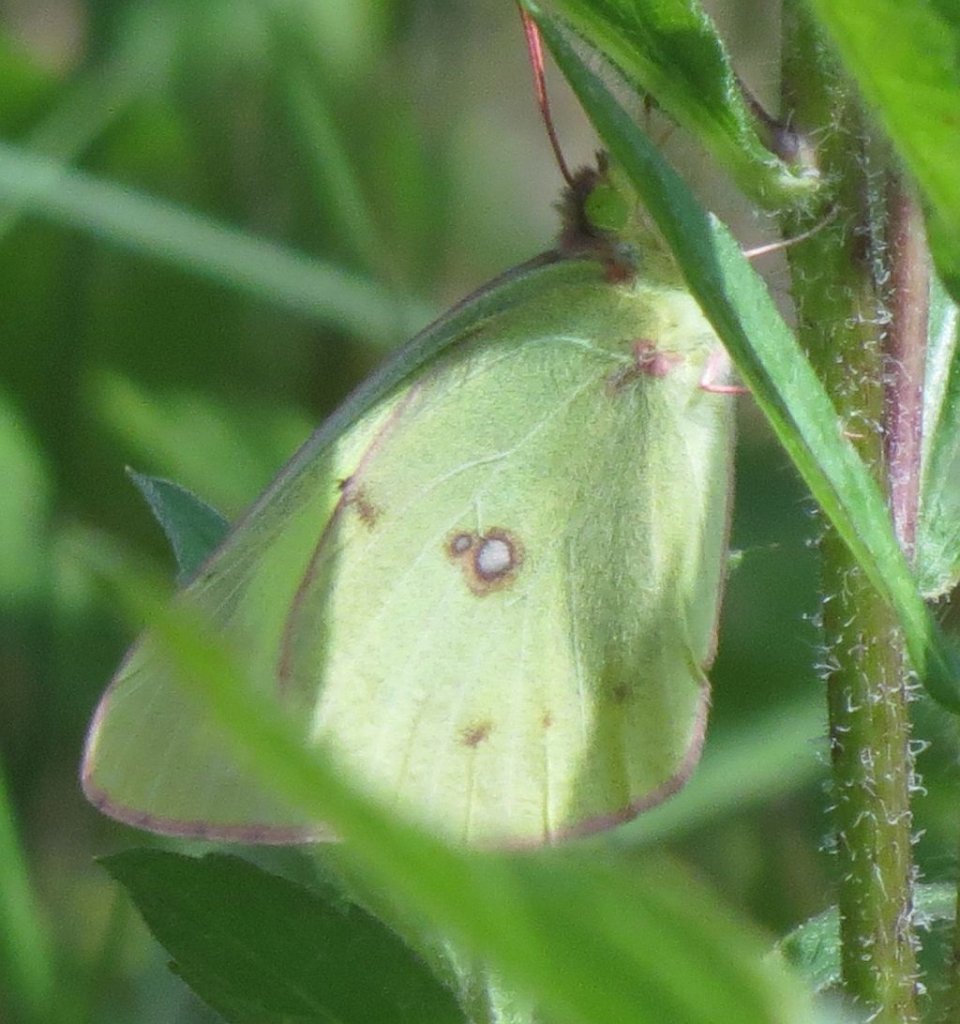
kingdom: Animalia
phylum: Arthropoda
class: Insecta
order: Lepidoptera
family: Pieridae
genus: Colias
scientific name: Colias philodice
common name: Clouded Sulphur
